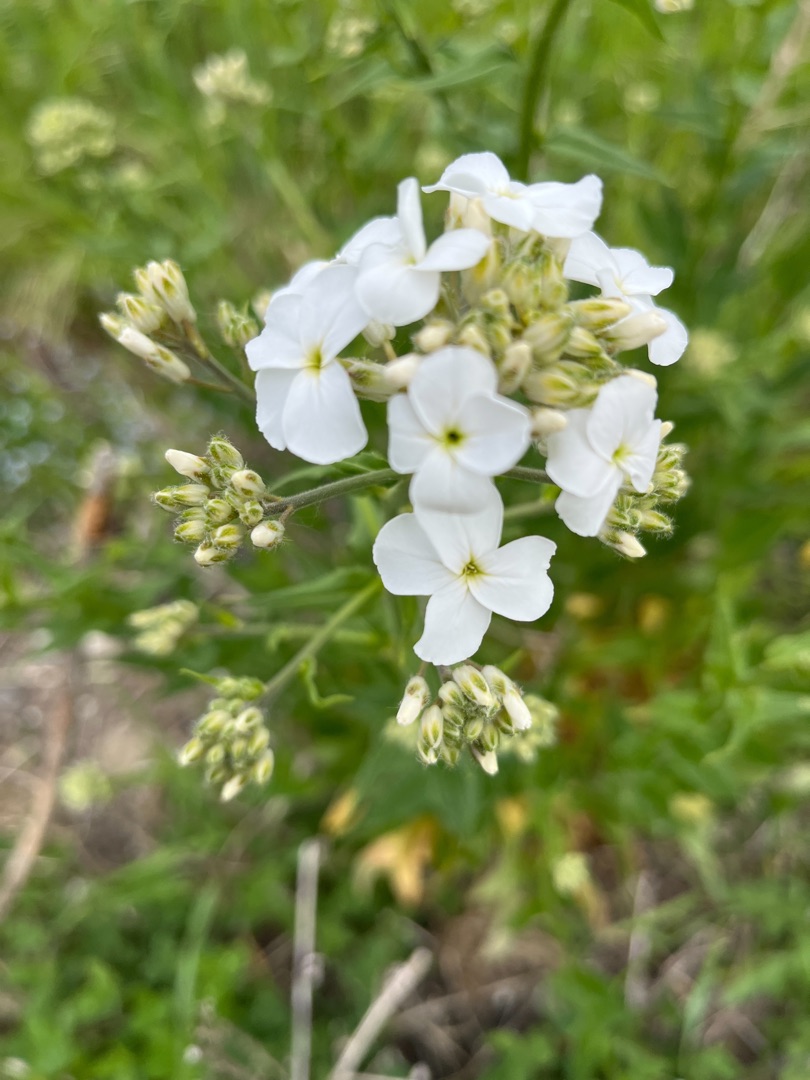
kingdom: Plantae
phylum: Tracheophyta
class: Magnoliopsida
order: Brassicales
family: Brassicaceae
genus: Hesperis
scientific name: Hesperis matronalis
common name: Aftenstjerne
